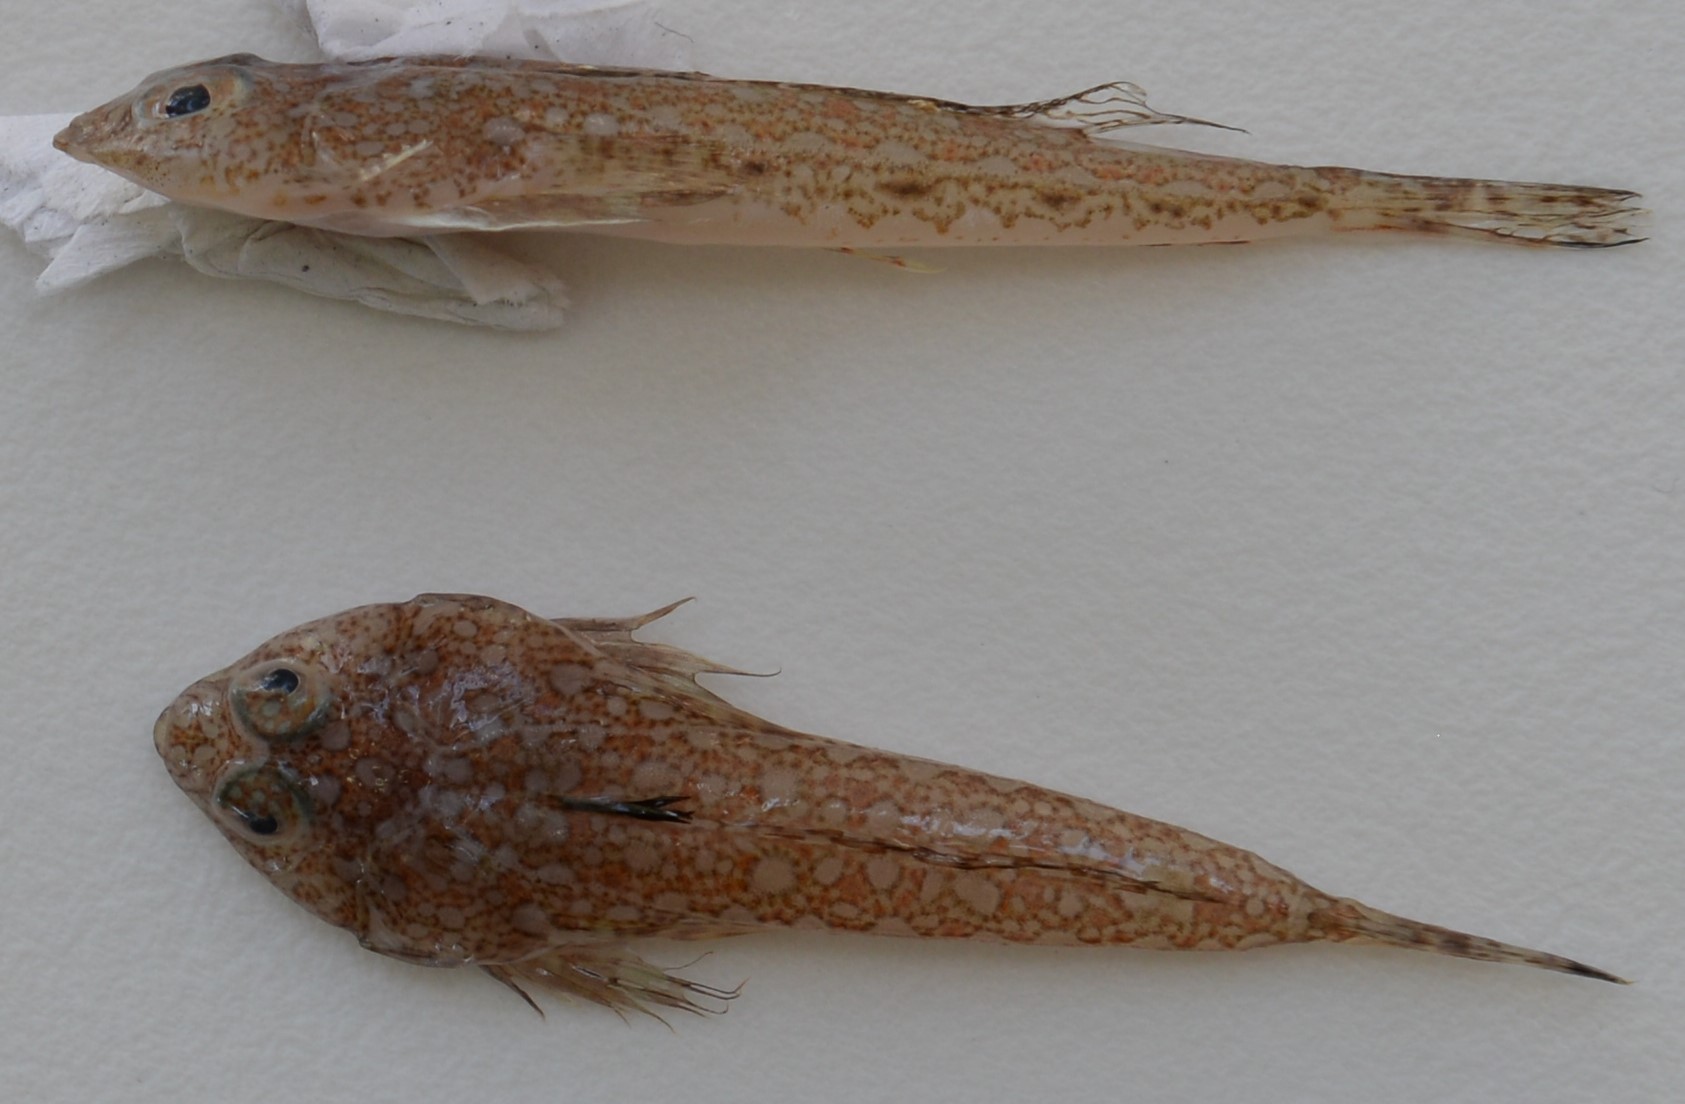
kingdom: Animalia
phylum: Chordata
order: Perciformes
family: Callionymidae
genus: Synchiropus
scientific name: Synchiropus
